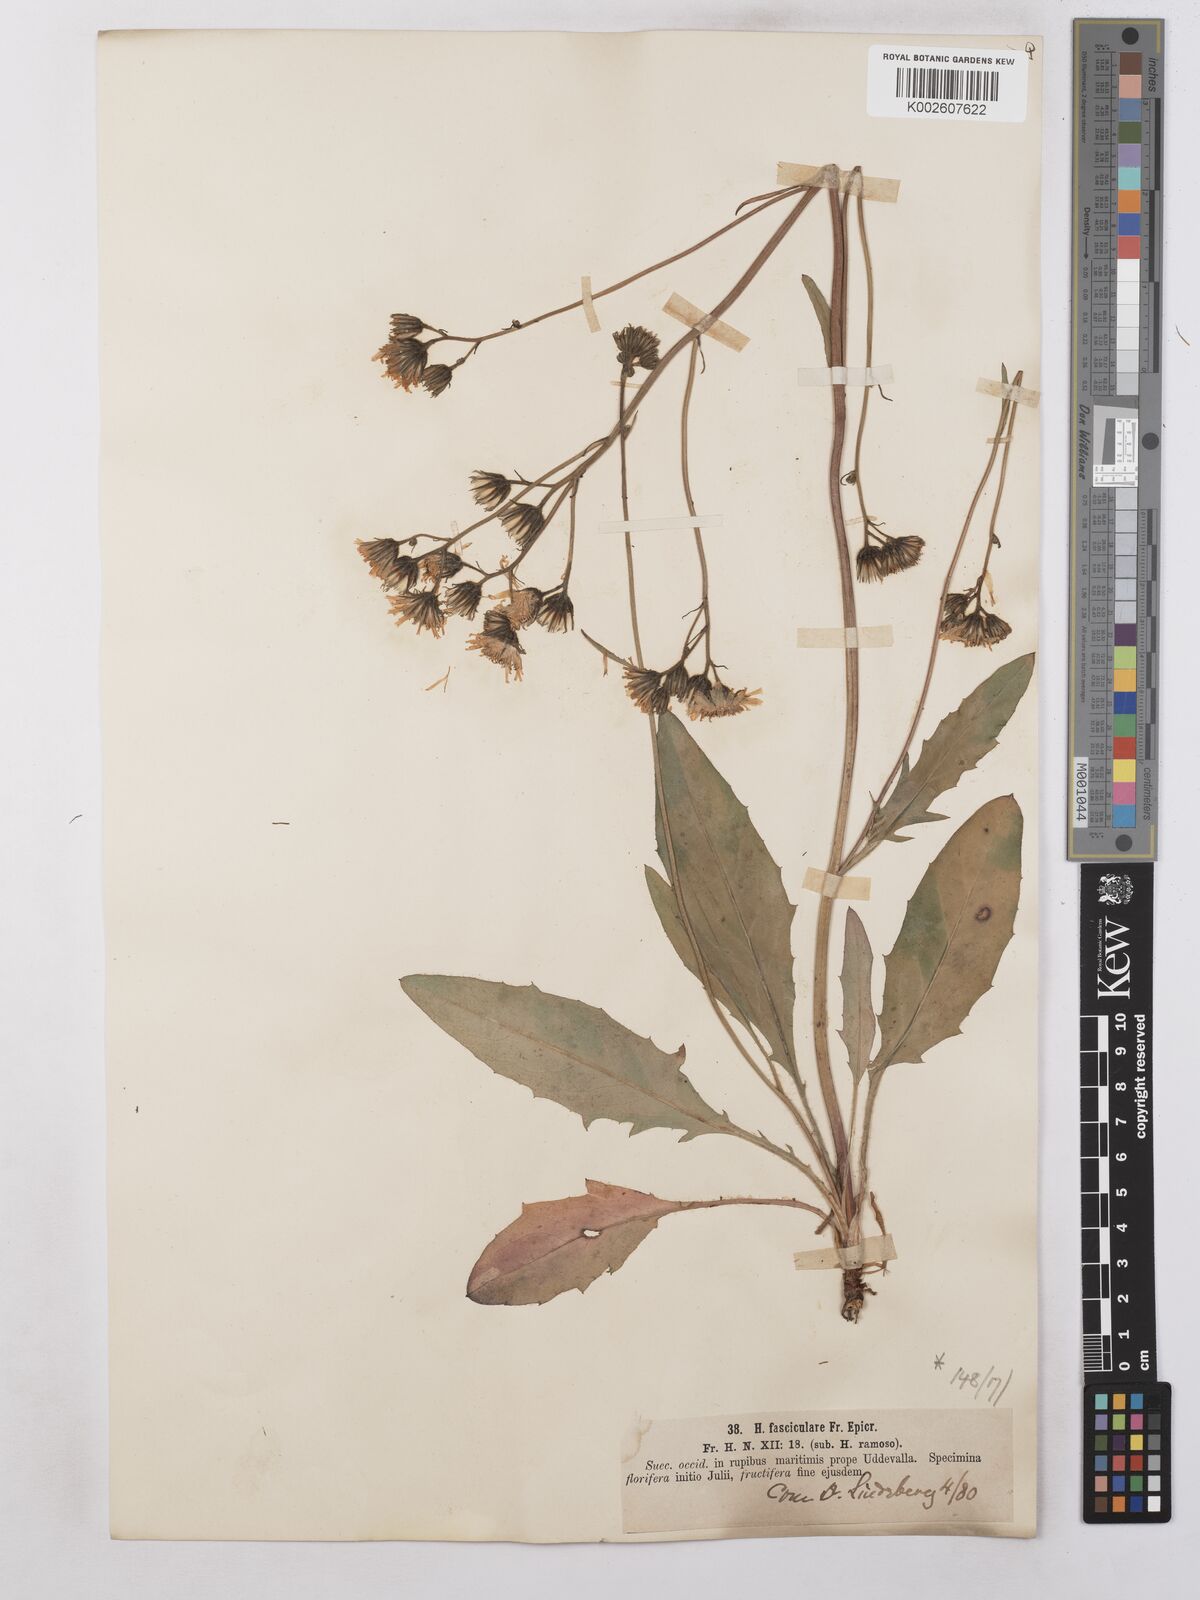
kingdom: Plantae
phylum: Tracheophyta
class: Magnoliopsida
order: Asterales
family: Asteraceae
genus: Hieracium
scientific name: Hieracium subramosum
